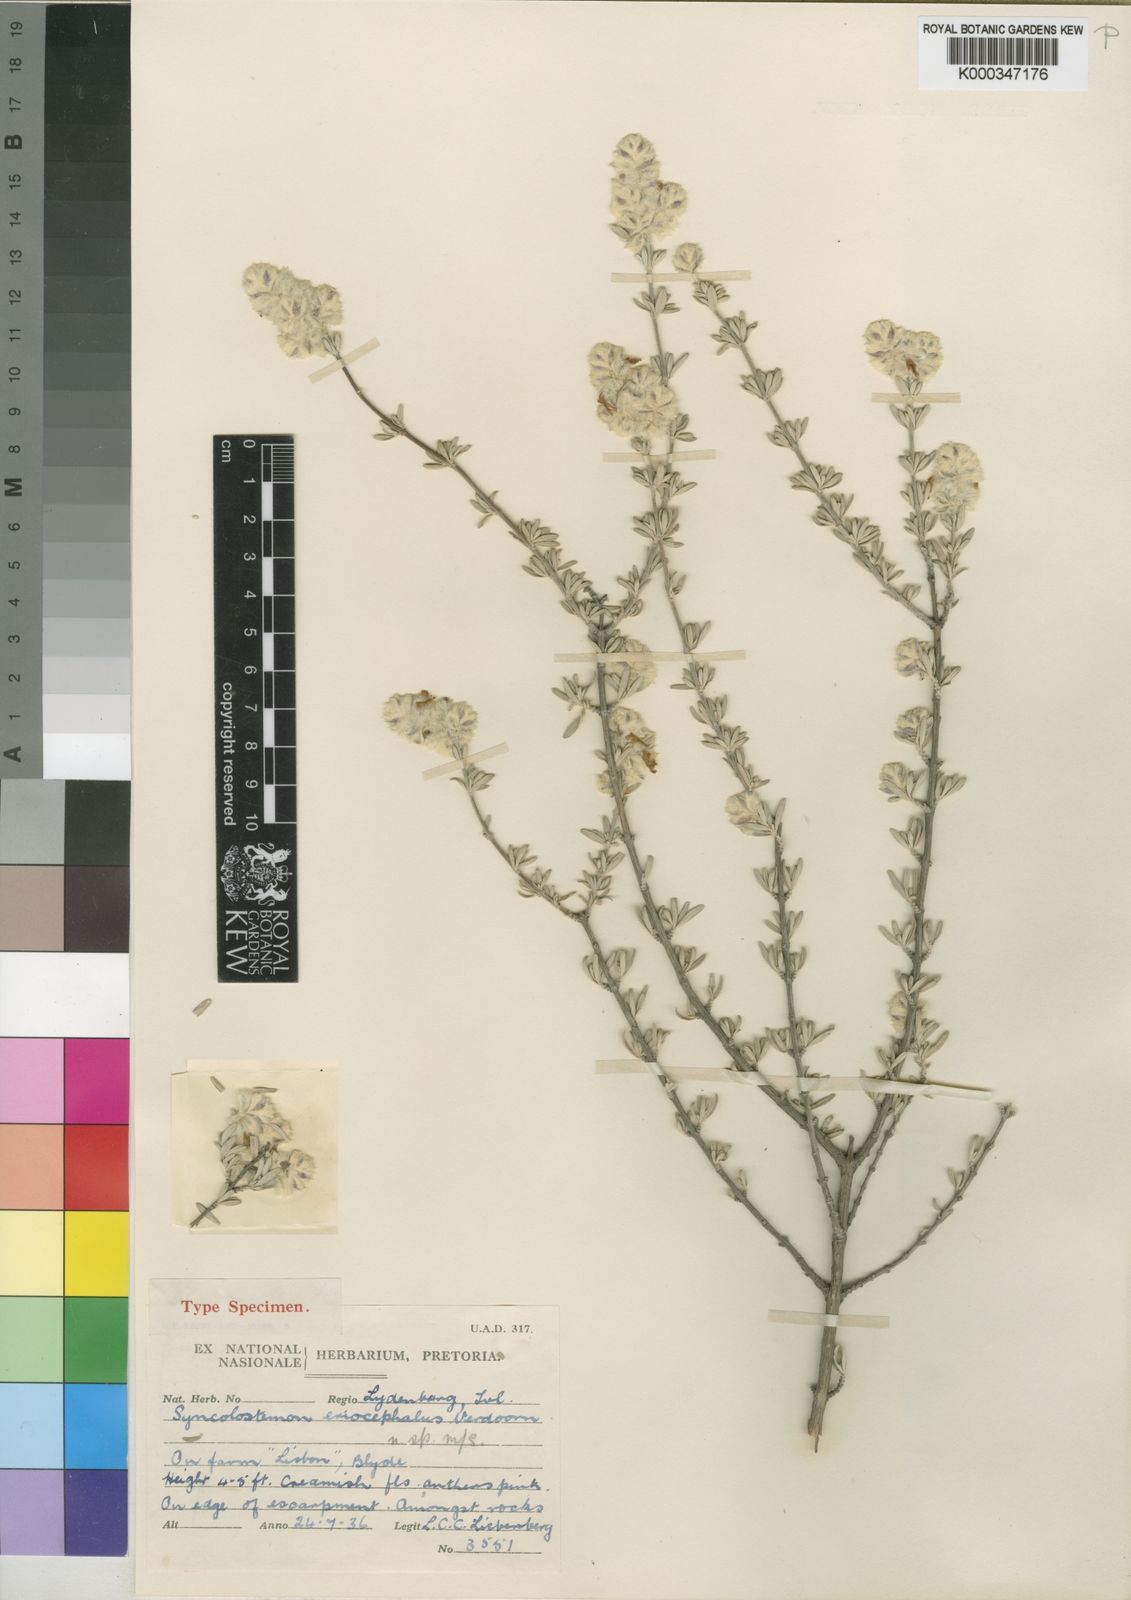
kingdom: Plantae
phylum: Tracheophyta
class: Magnoliopsida
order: Lamiales
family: Lamiaceae
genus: Syncolostemon
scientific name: Syncolostemon eriocephalus
